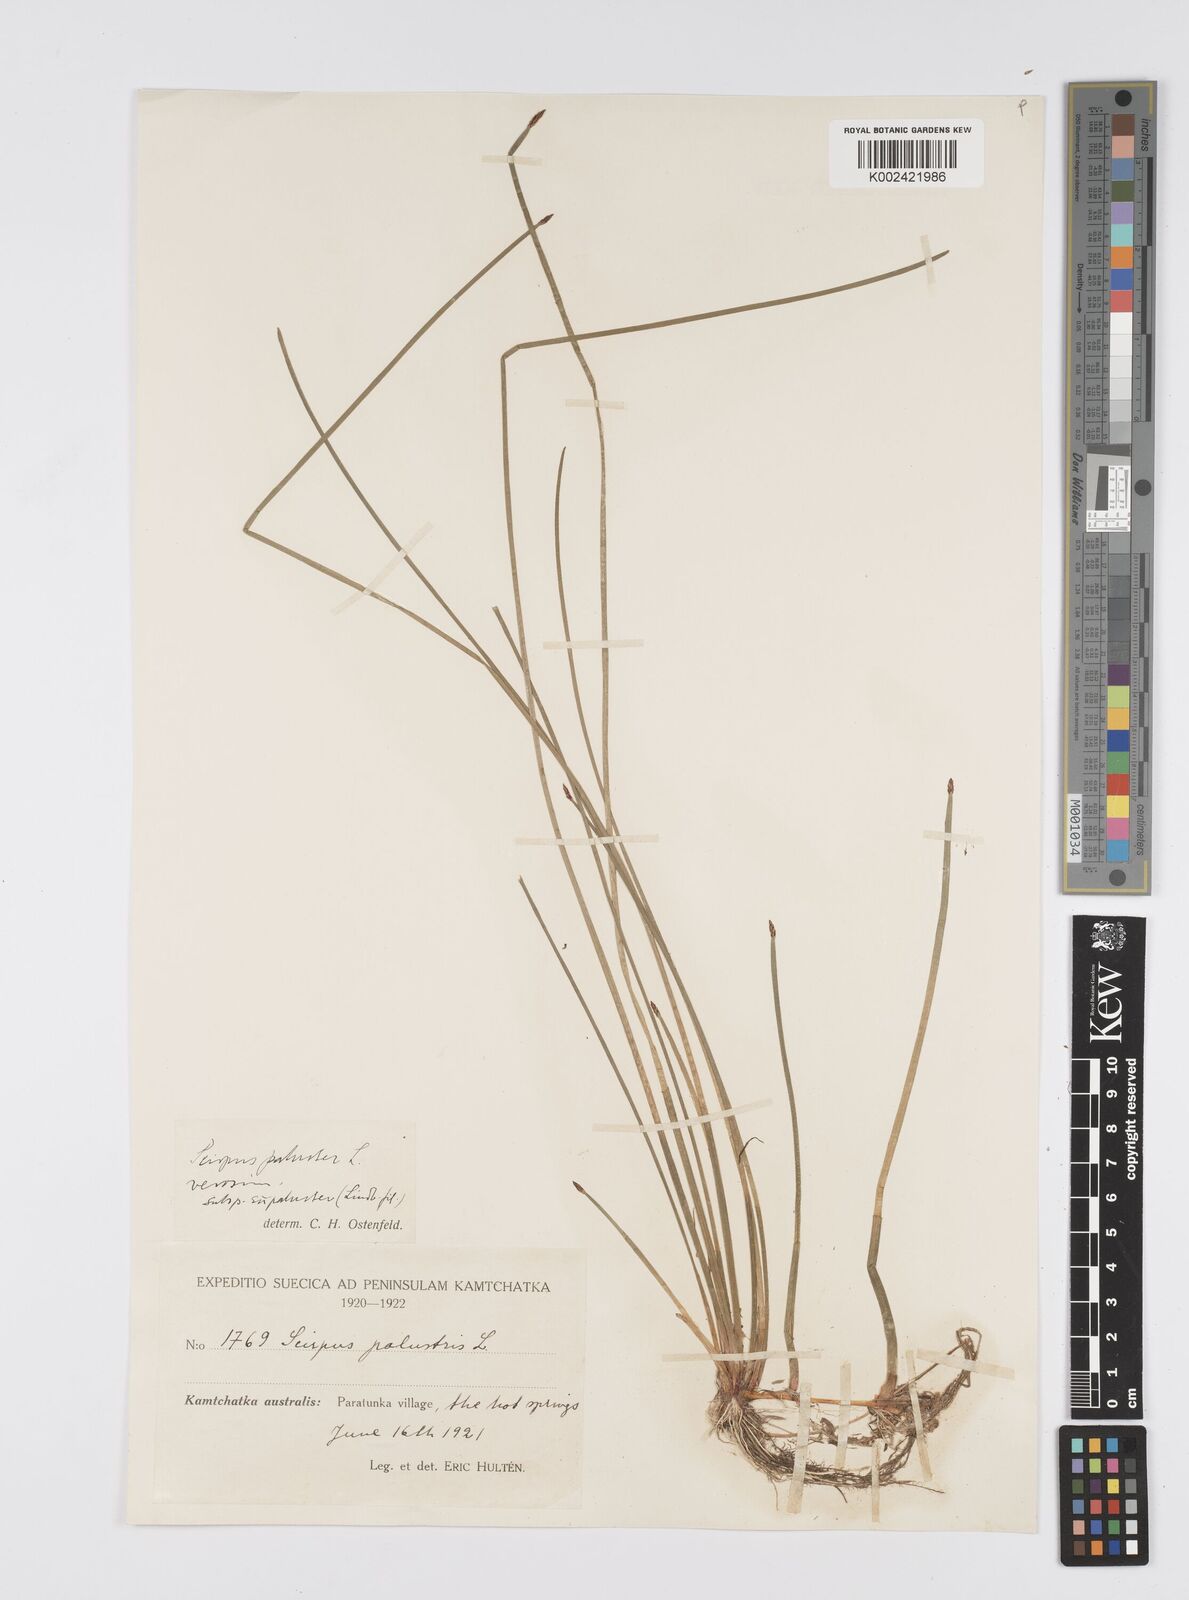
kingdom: Plantae
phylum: Tracheophyta
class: Liliopsida
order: Poales
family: Cyperaceae
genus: Eleocharis
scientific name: Eleocharis palustris
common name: Common spike-rush
